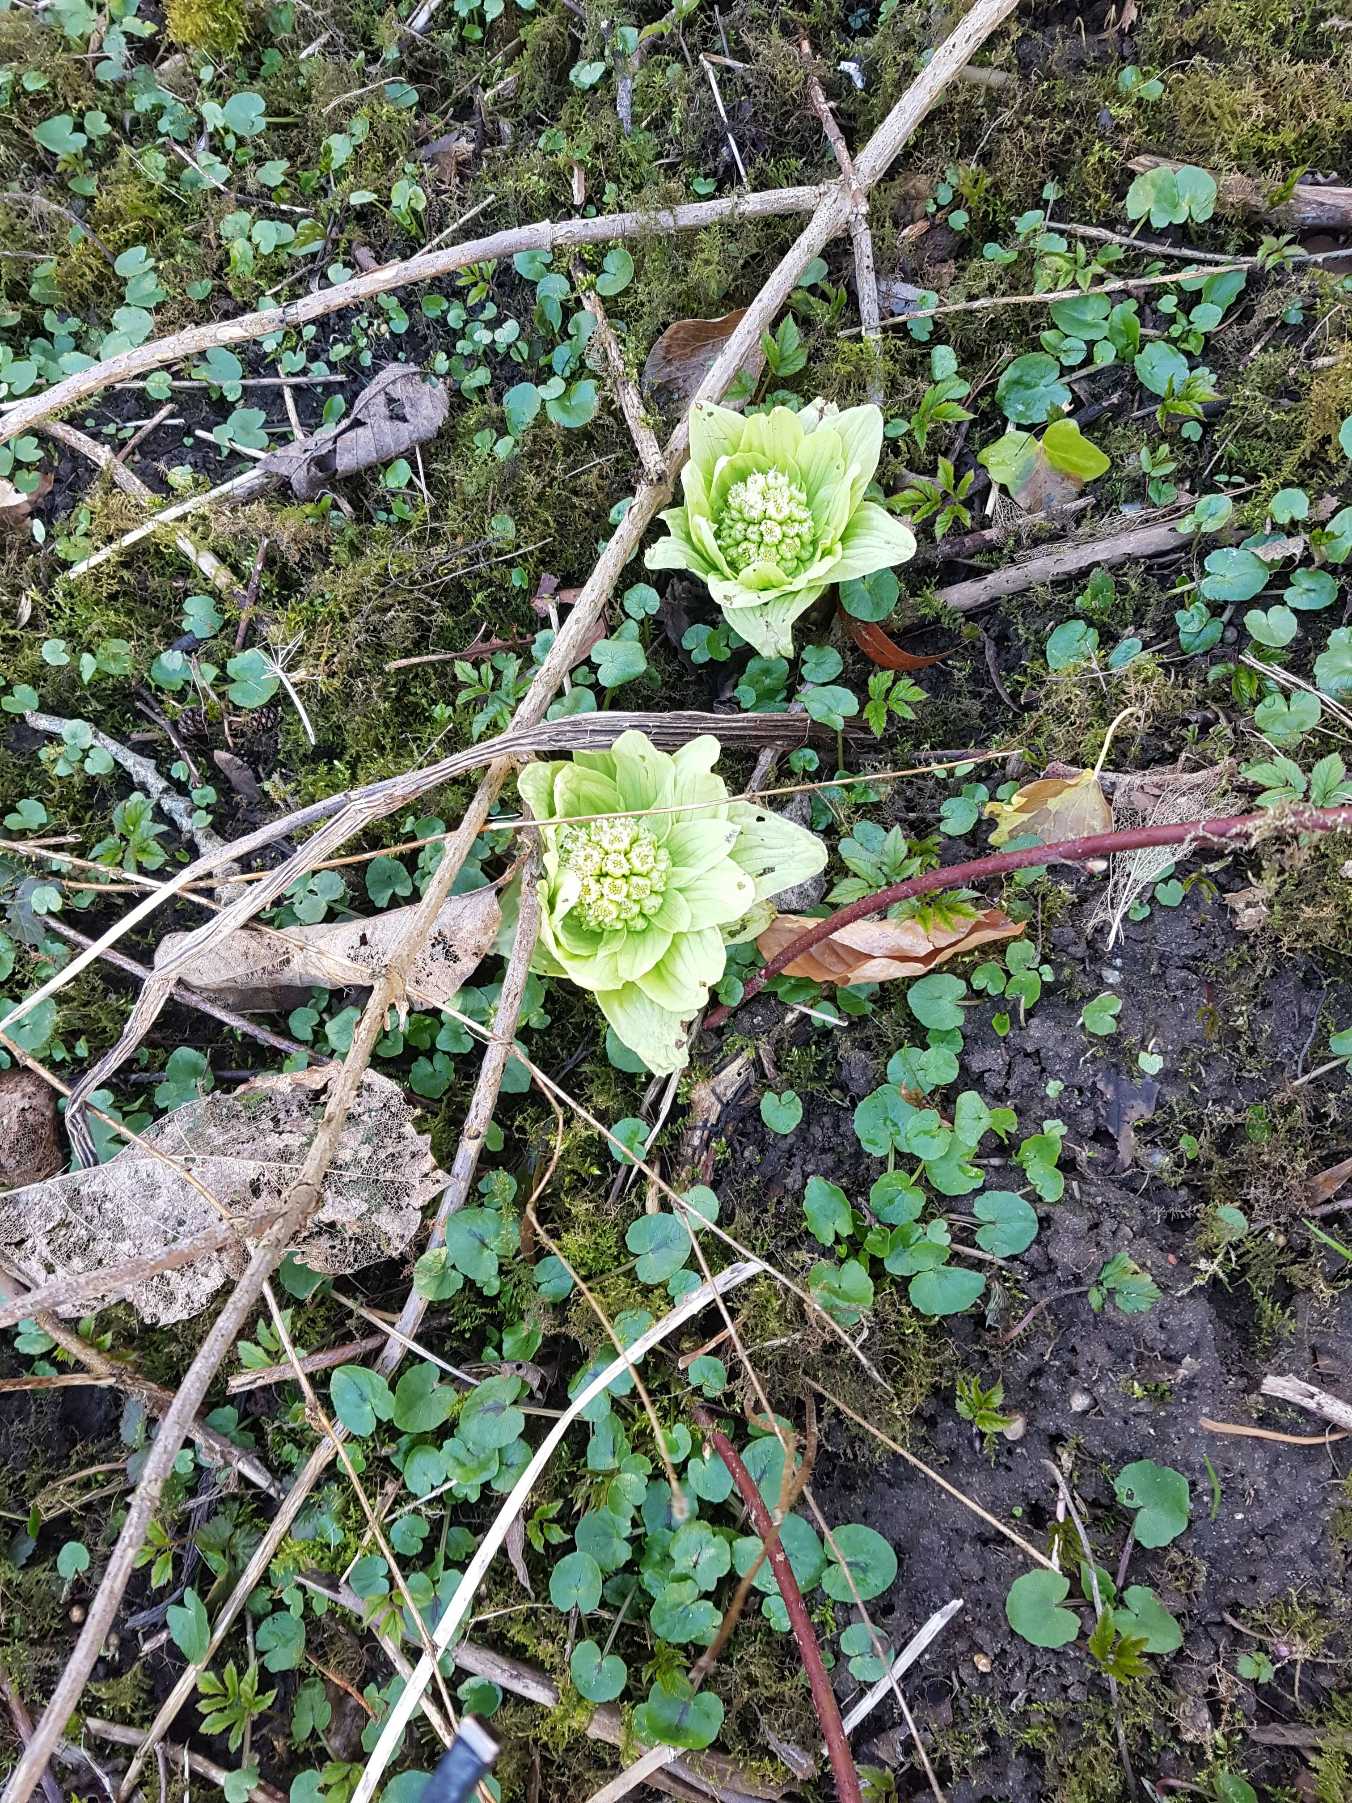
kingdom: Plantae
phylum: Tracheophyta
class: Magnoliopsida
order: Asterales
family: Asteraceae
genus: Petasites
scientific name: Petasites japonicus
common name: Japansk hestehov
